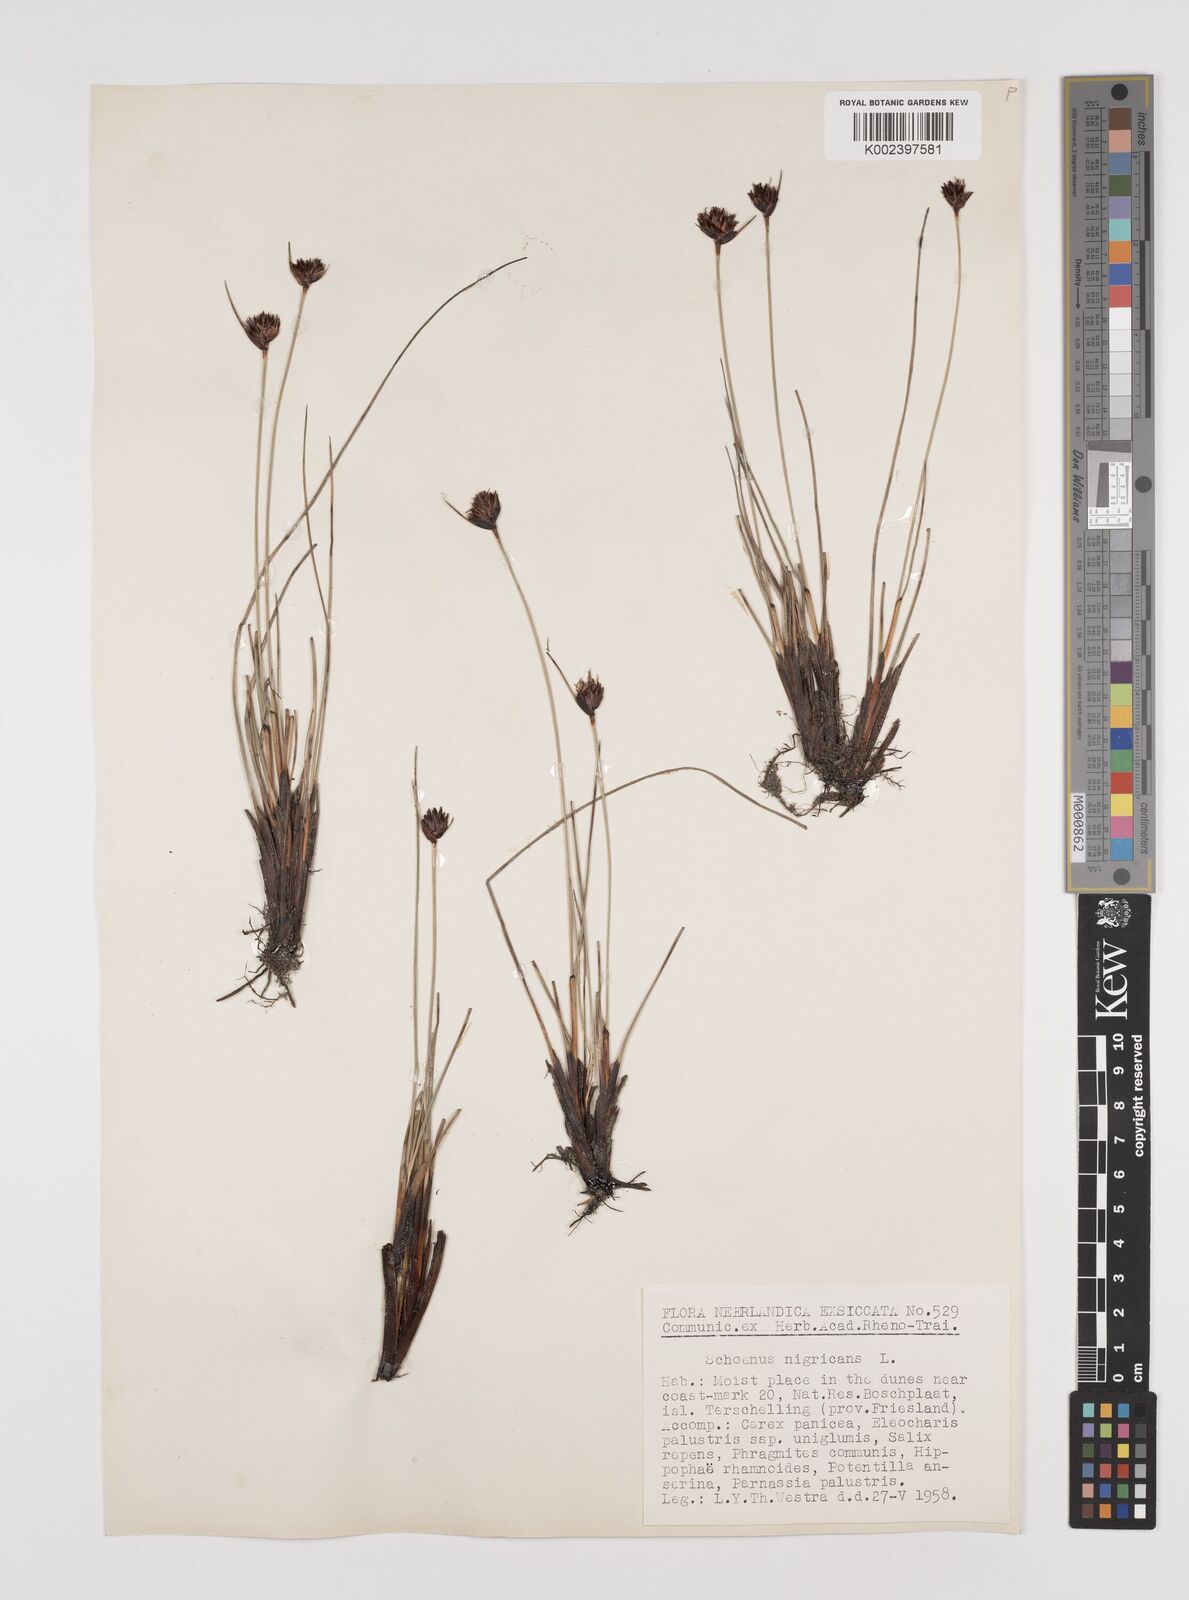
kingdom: Plantae
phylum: Tracheophyta
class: Liliopsida
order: Poales
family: Cyperaceae
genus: Schoenus
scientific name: Schoenus nigricans
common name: Black bog-rush
